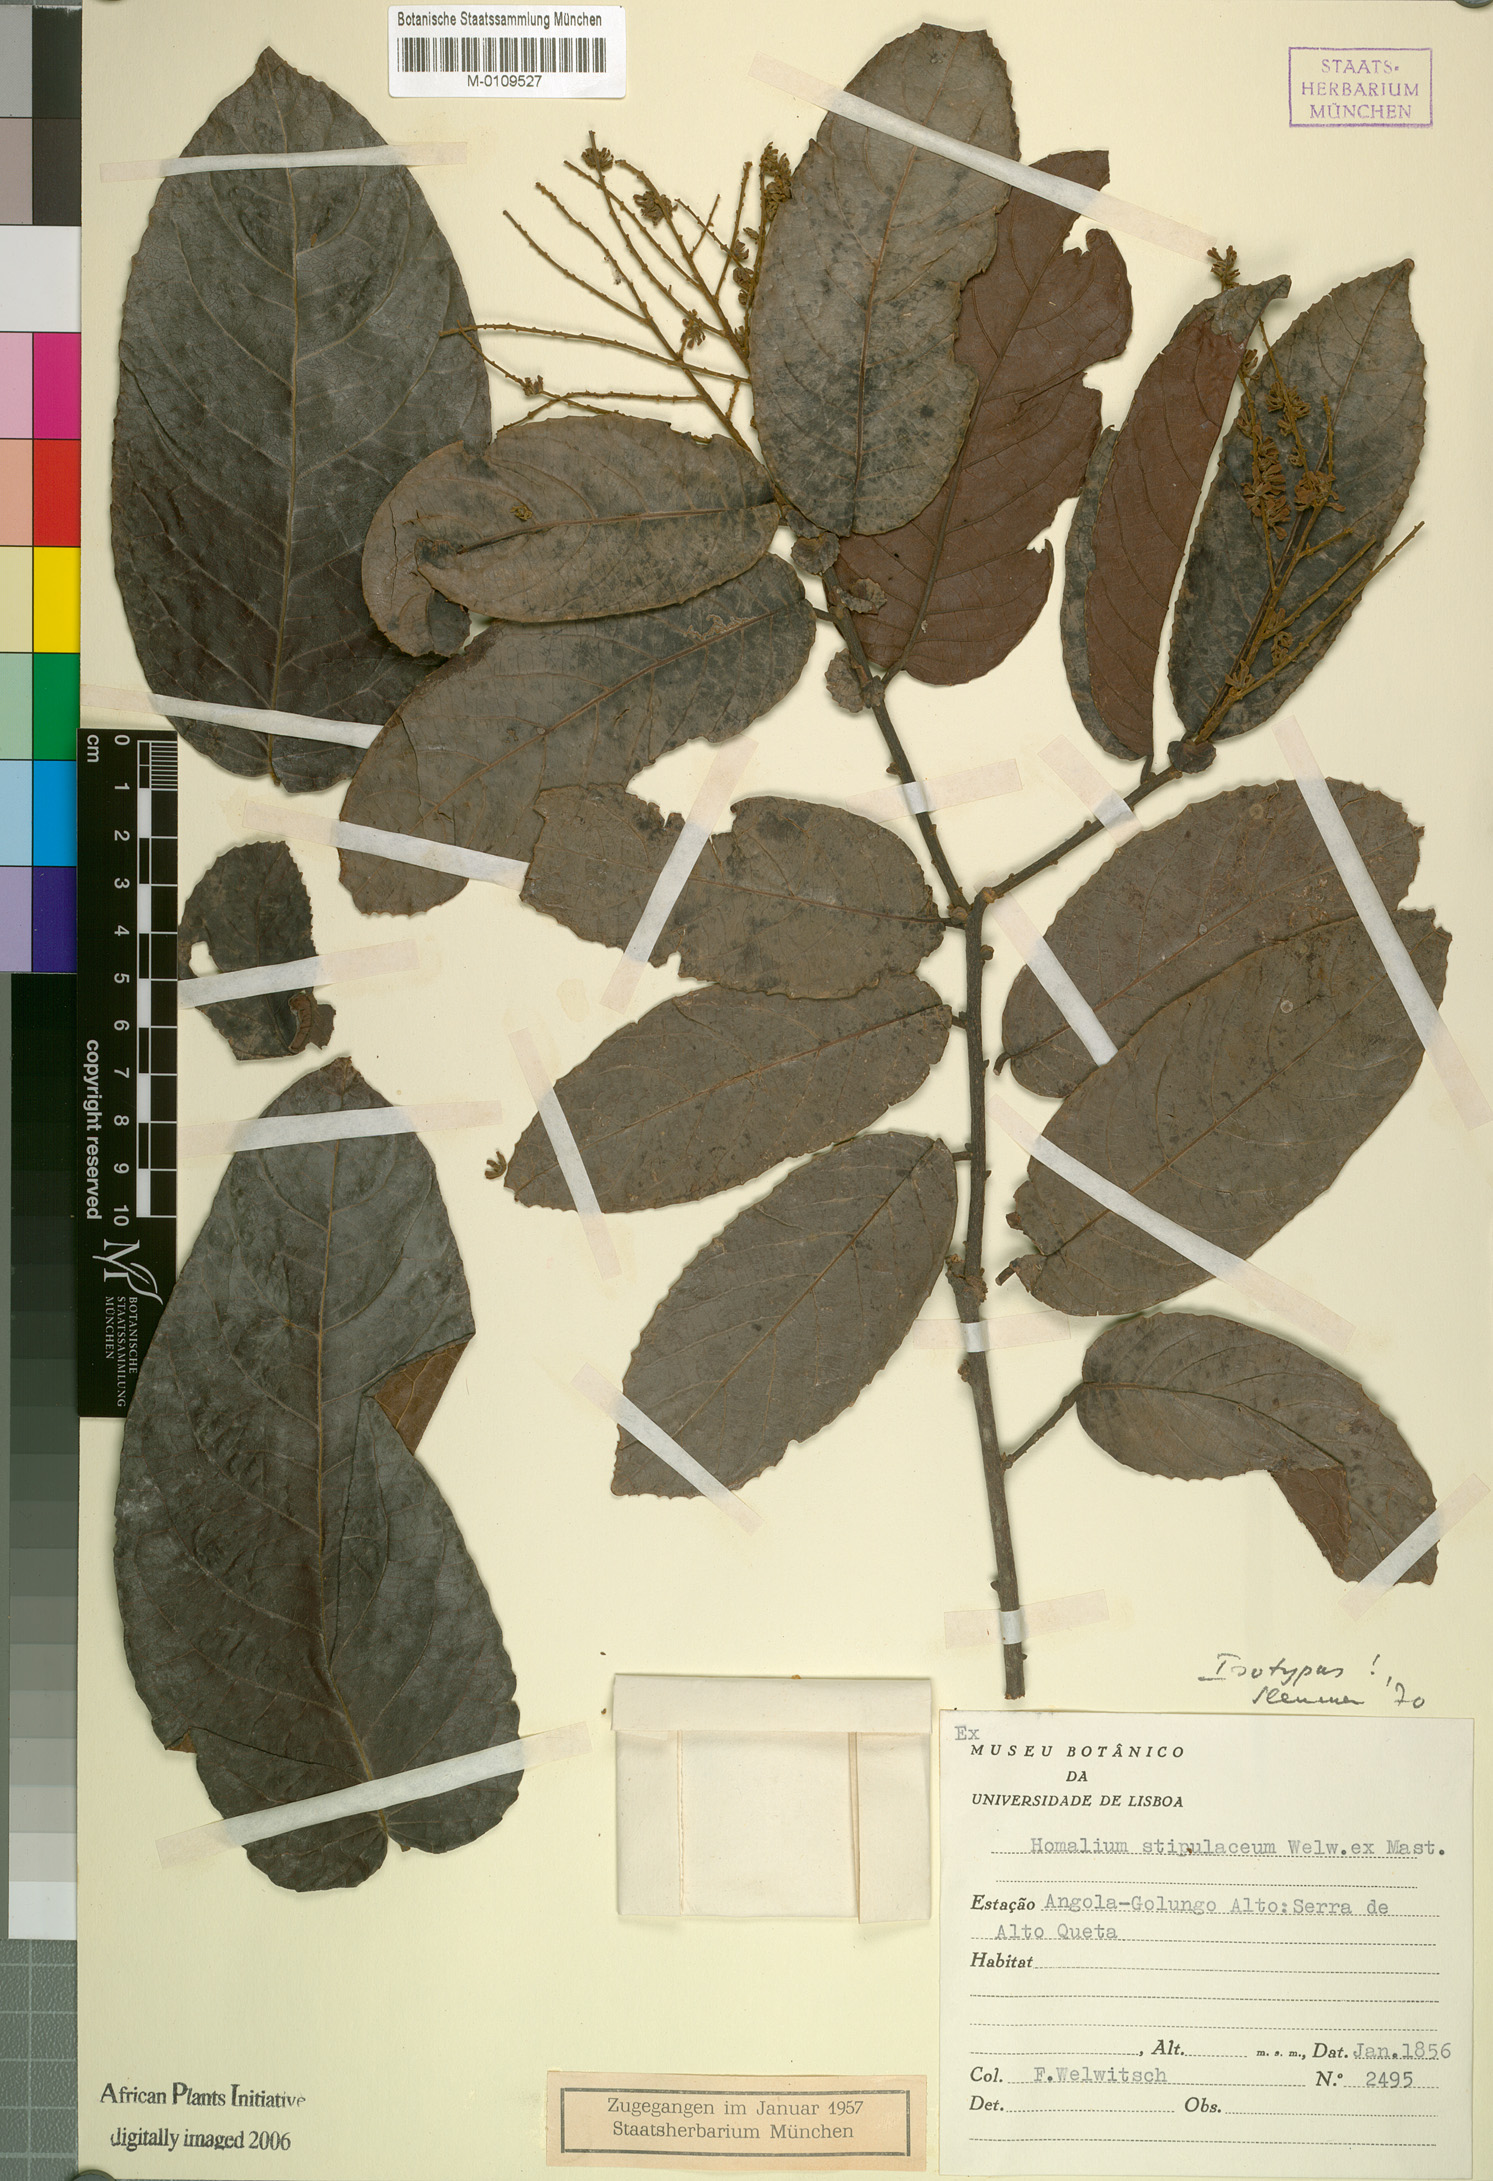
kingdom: Plantae
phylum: Tracheophyta
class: Magnoliopsida
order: Malpighiales
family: Salicaceae
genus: Homalium
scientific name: Homalium stipulaceum
